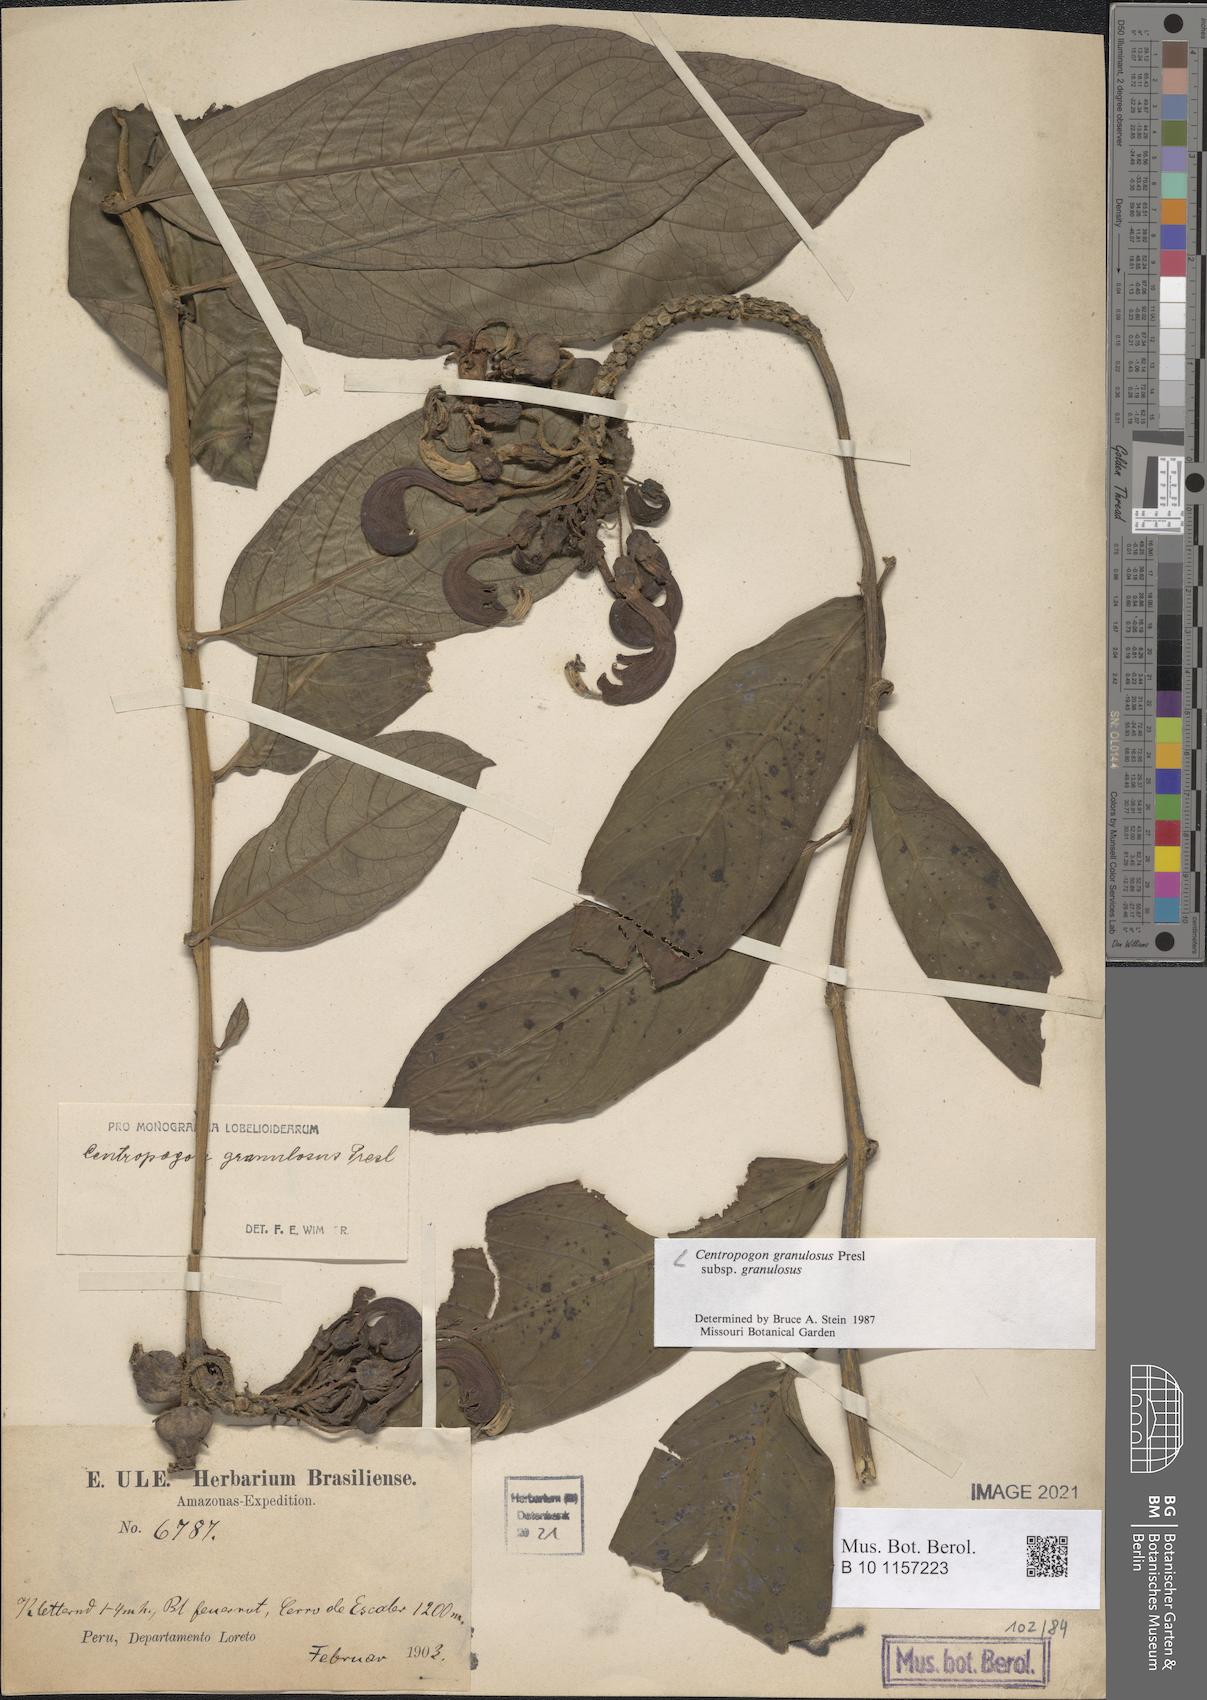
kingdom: Plantae
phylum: Tracheophyta
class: Magnoliopsida
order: Asterales
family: Campanulaceae
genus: Centropogon
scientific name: Centropogon granulosus
